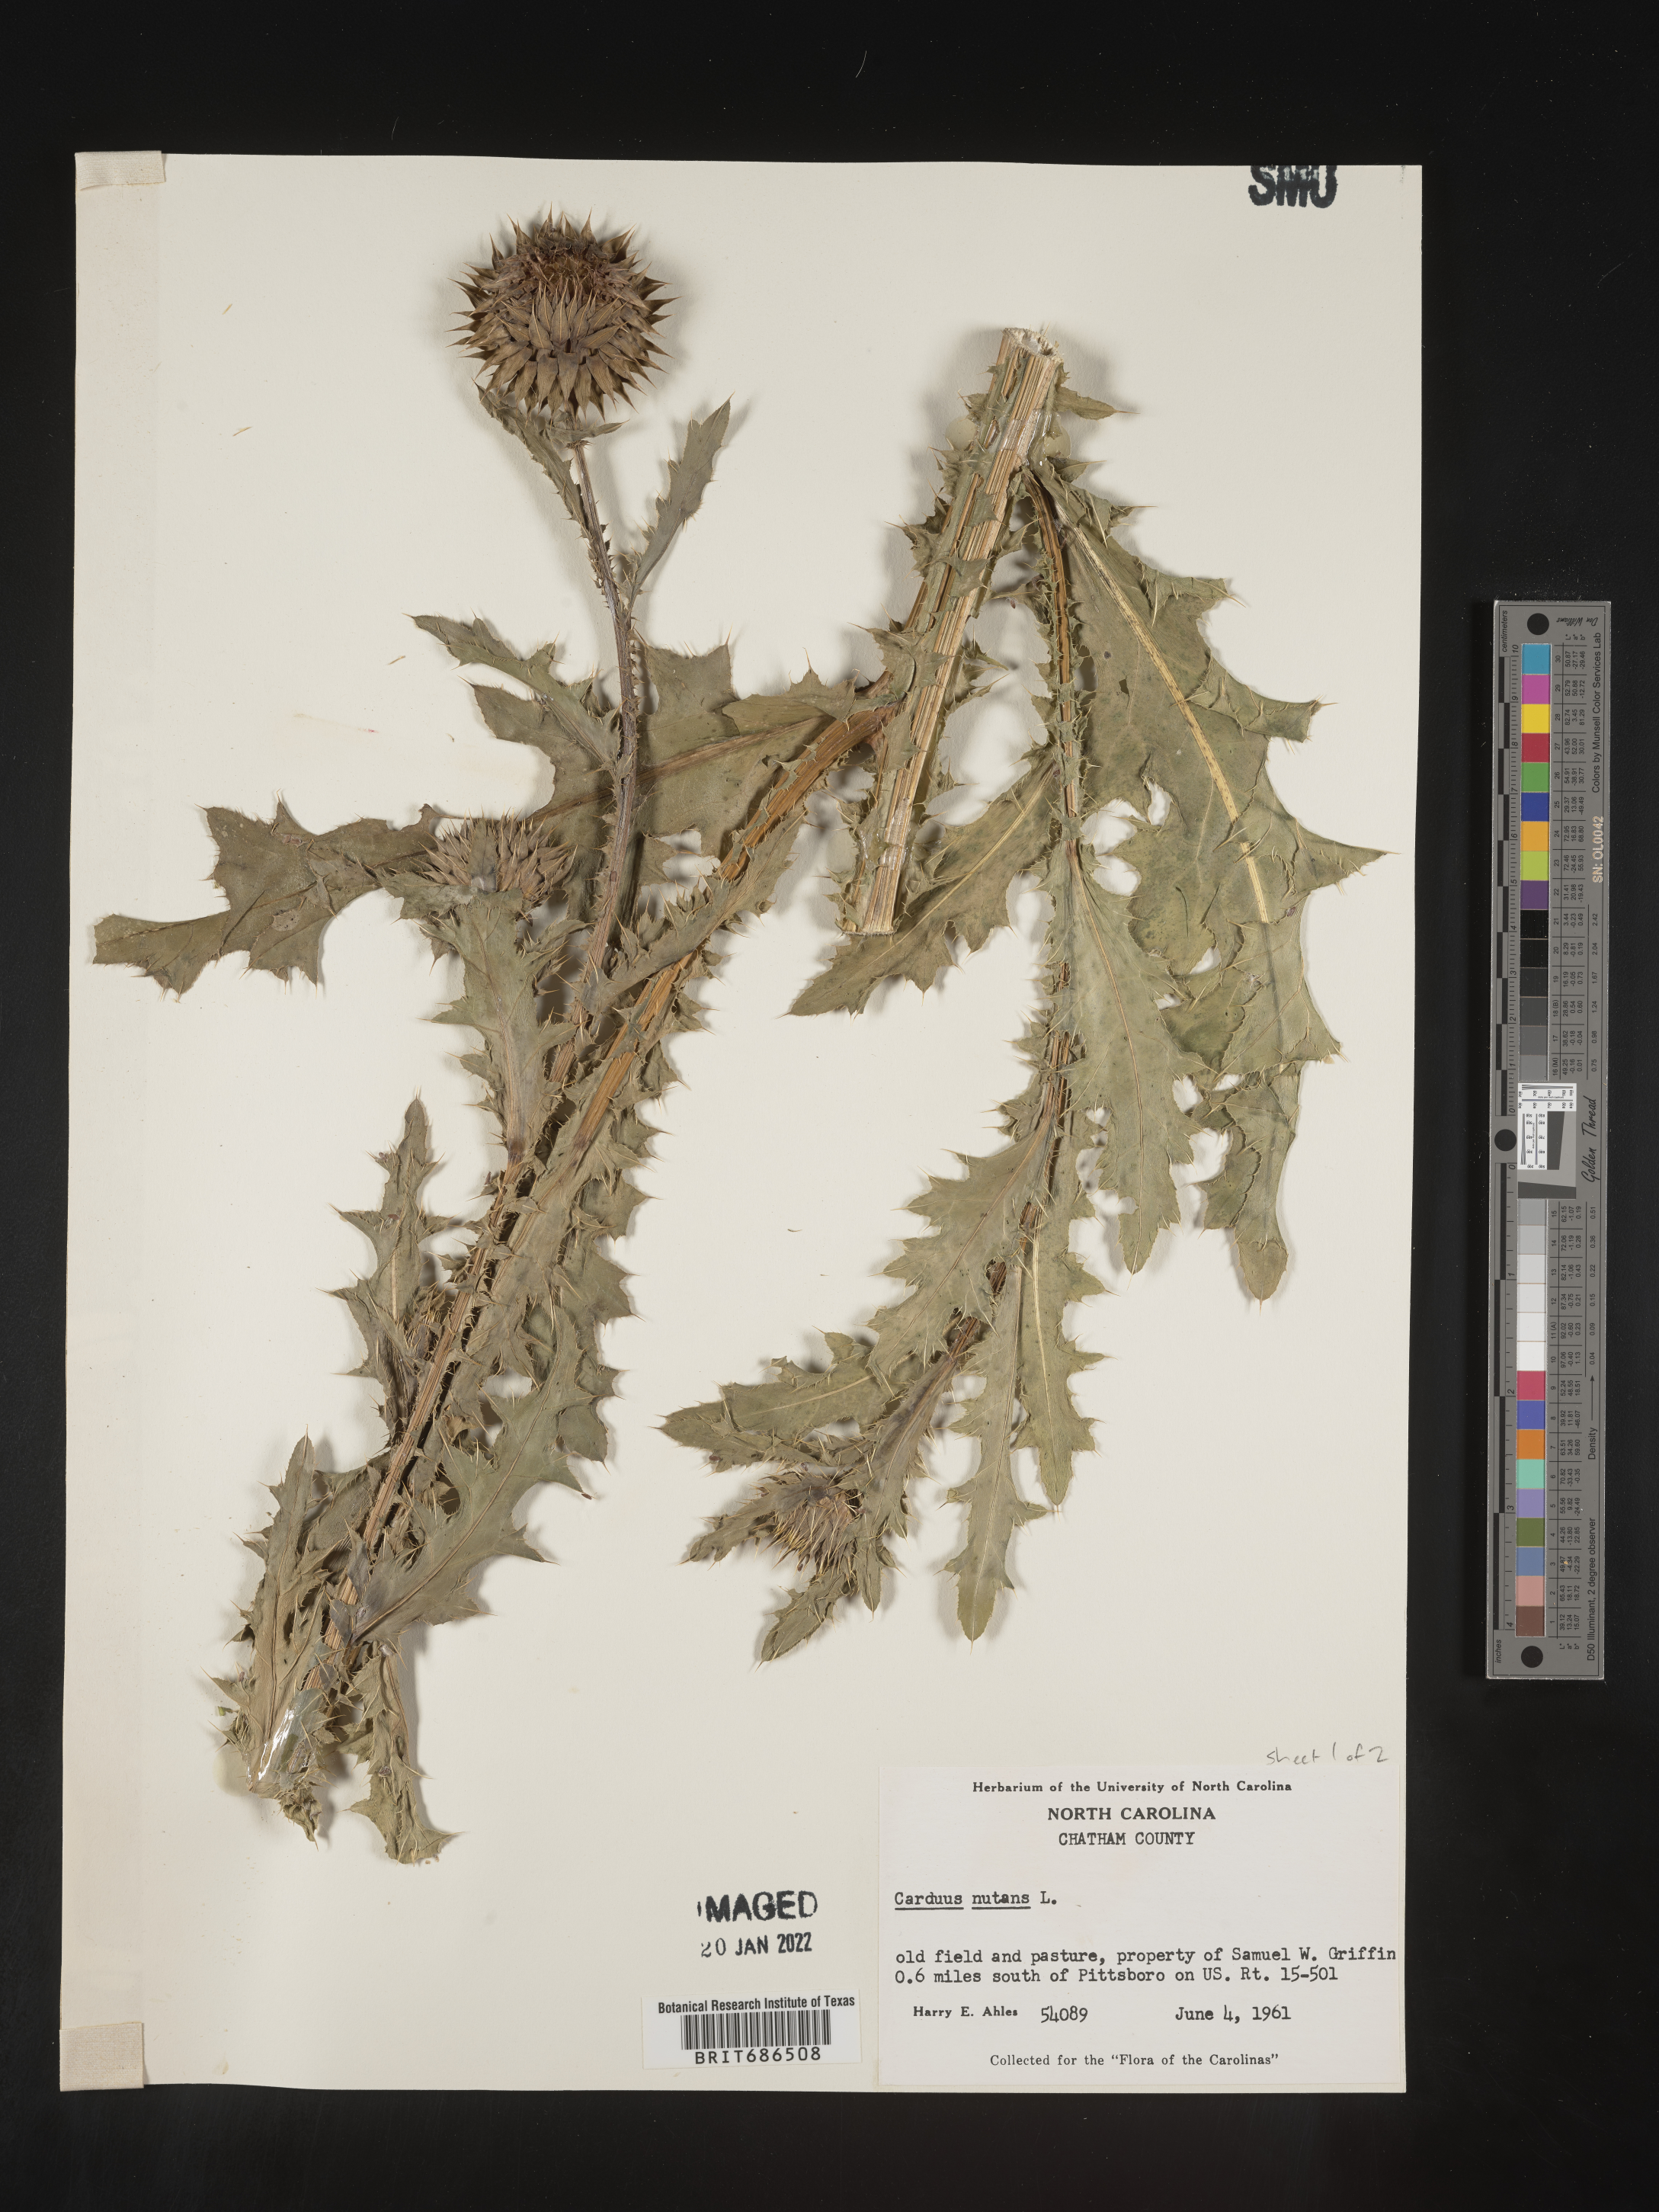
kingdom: Plantae
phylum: Tracheophyta
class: Magnoliopsida
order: Asterales
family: Asteraceae
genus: Carduus
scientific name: Carduus nutans
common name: Musk thistle
